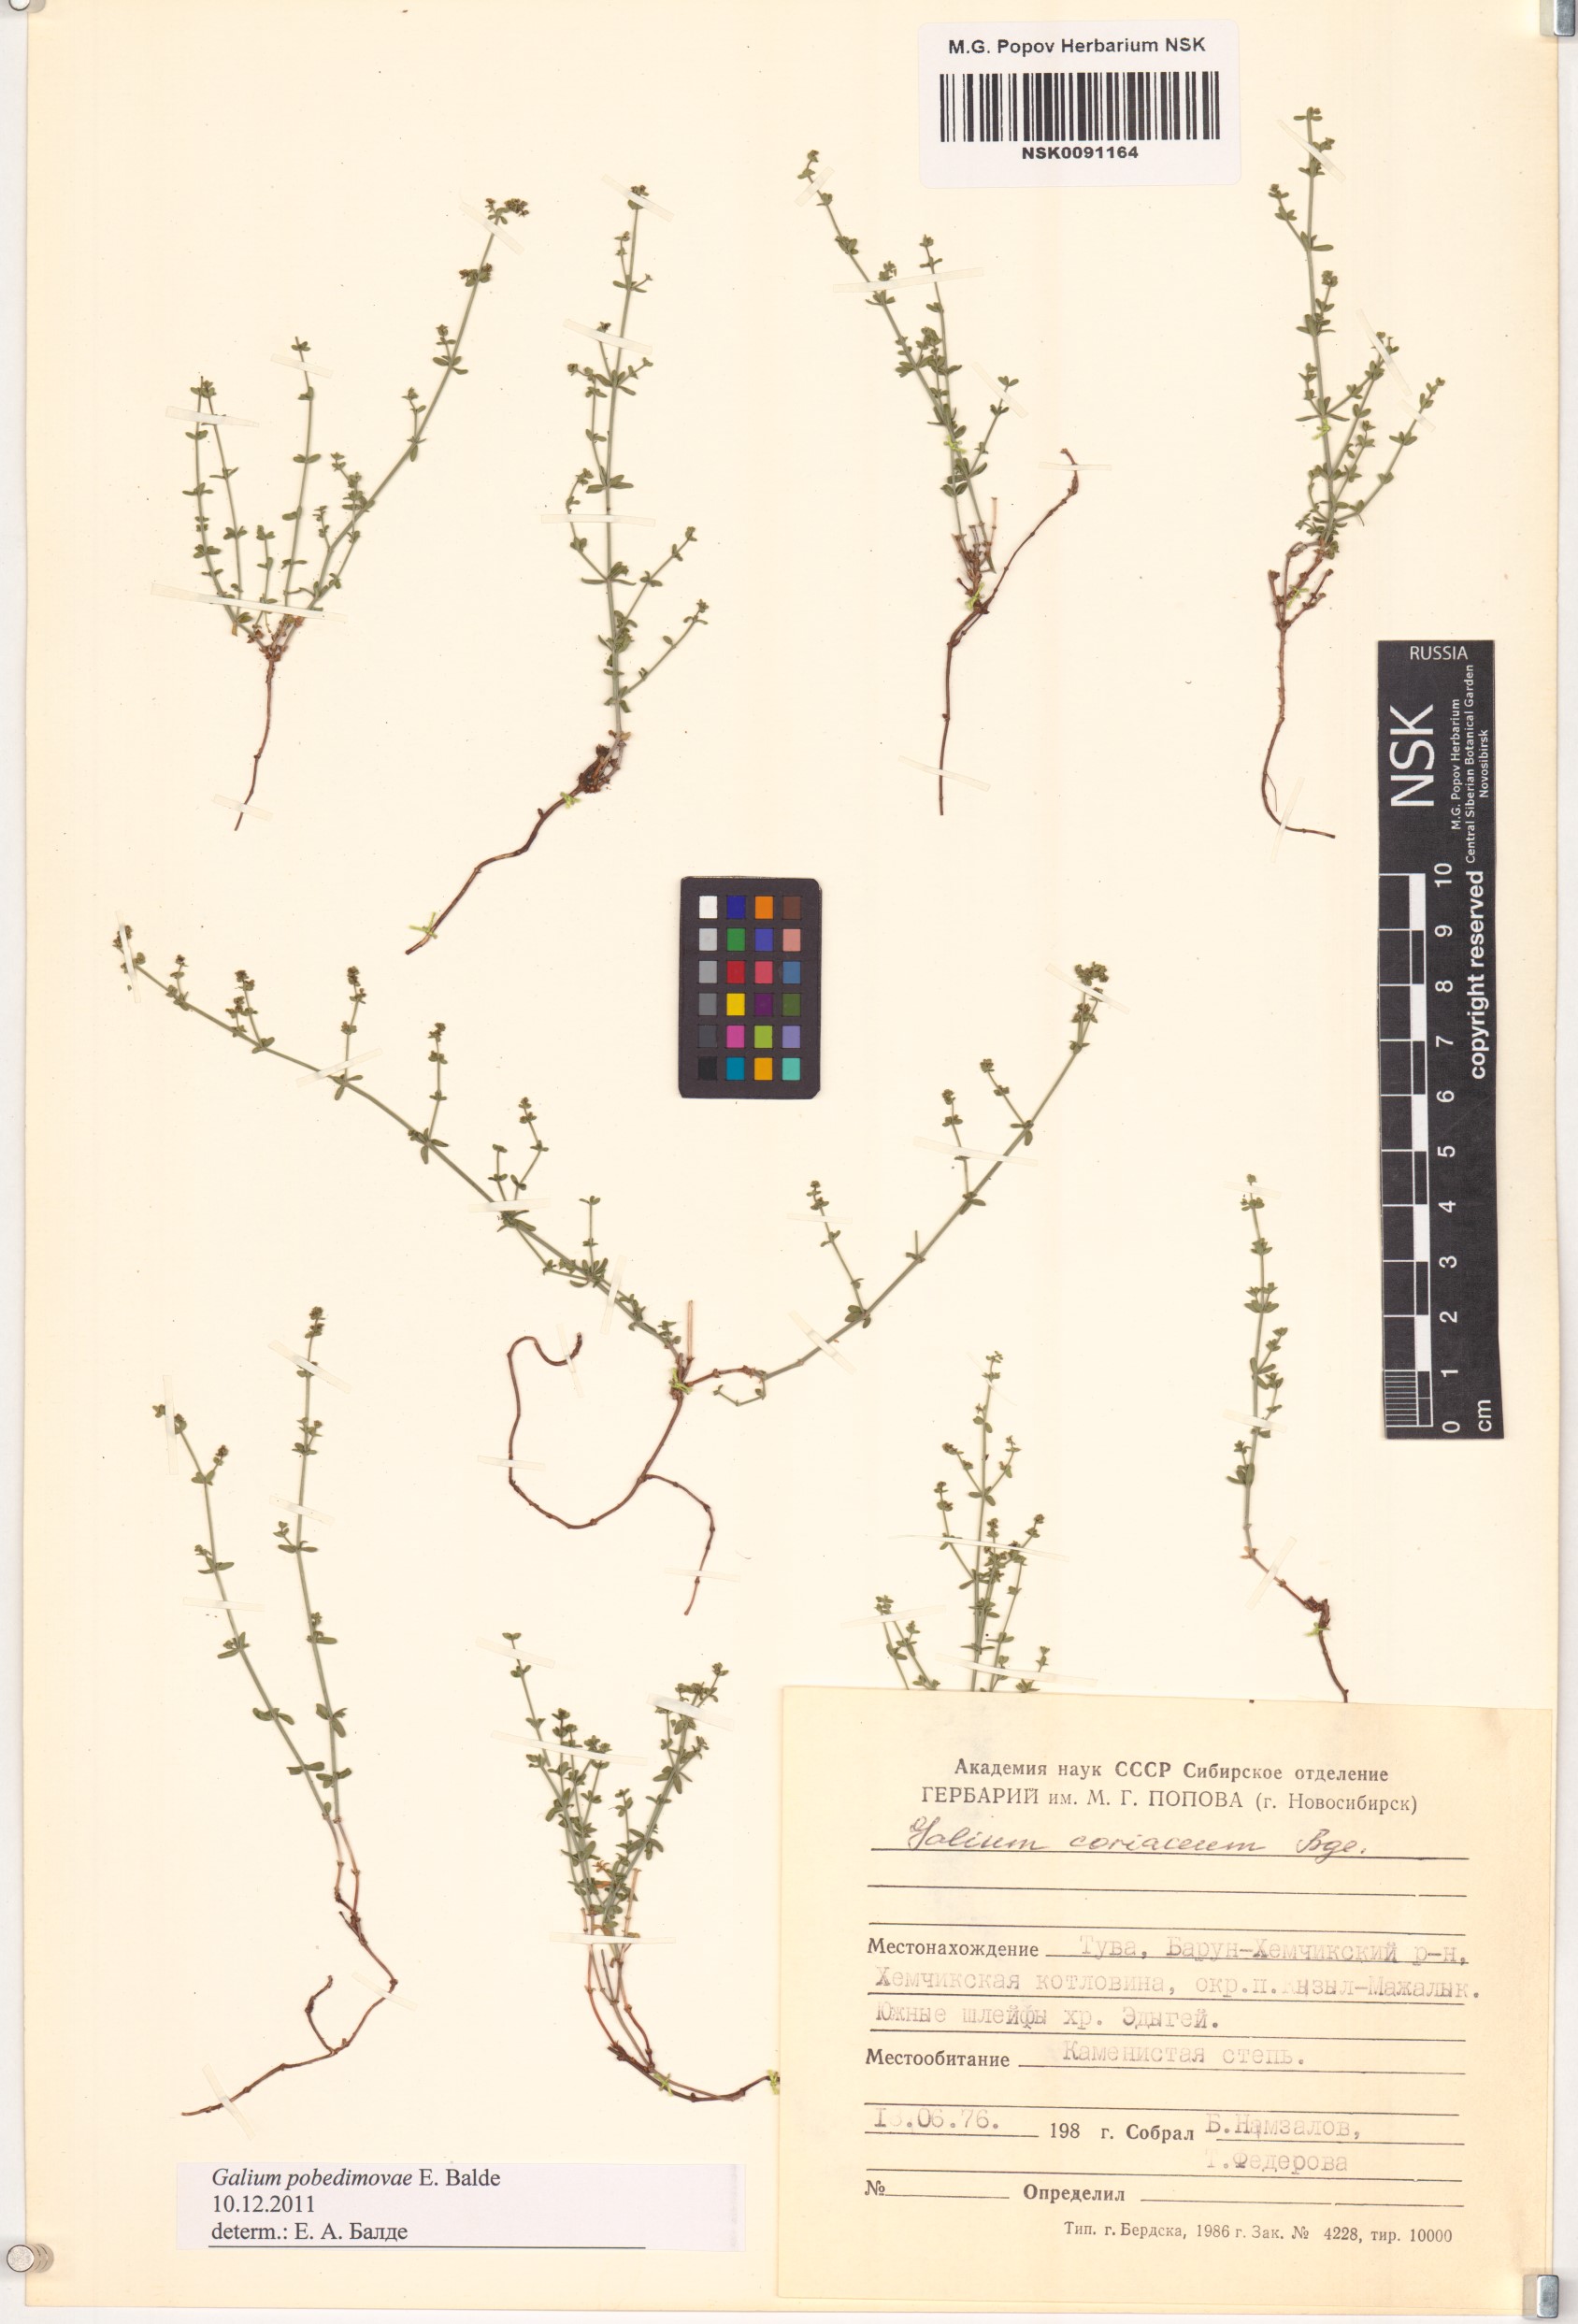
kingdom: Plantae
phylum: Tracheophyta
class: Magnoliopsida
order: Gentianales
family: Rubiaceae
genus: Galium
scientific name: Galium pobedimovae
